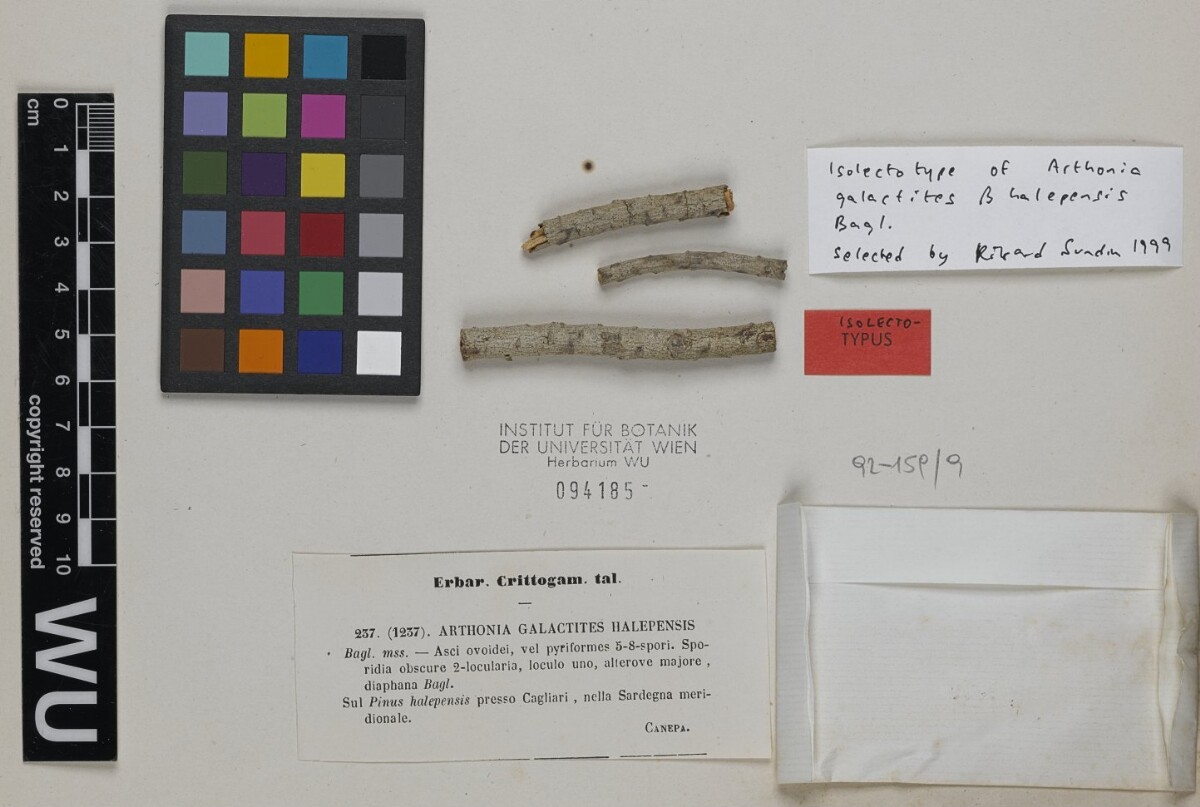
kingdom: Fungi
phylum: Ascomycota
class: Arthoniomycetes
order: Arthoniales
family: Arthoniaceae
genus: Arthonia
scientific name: Arthonia galactites
